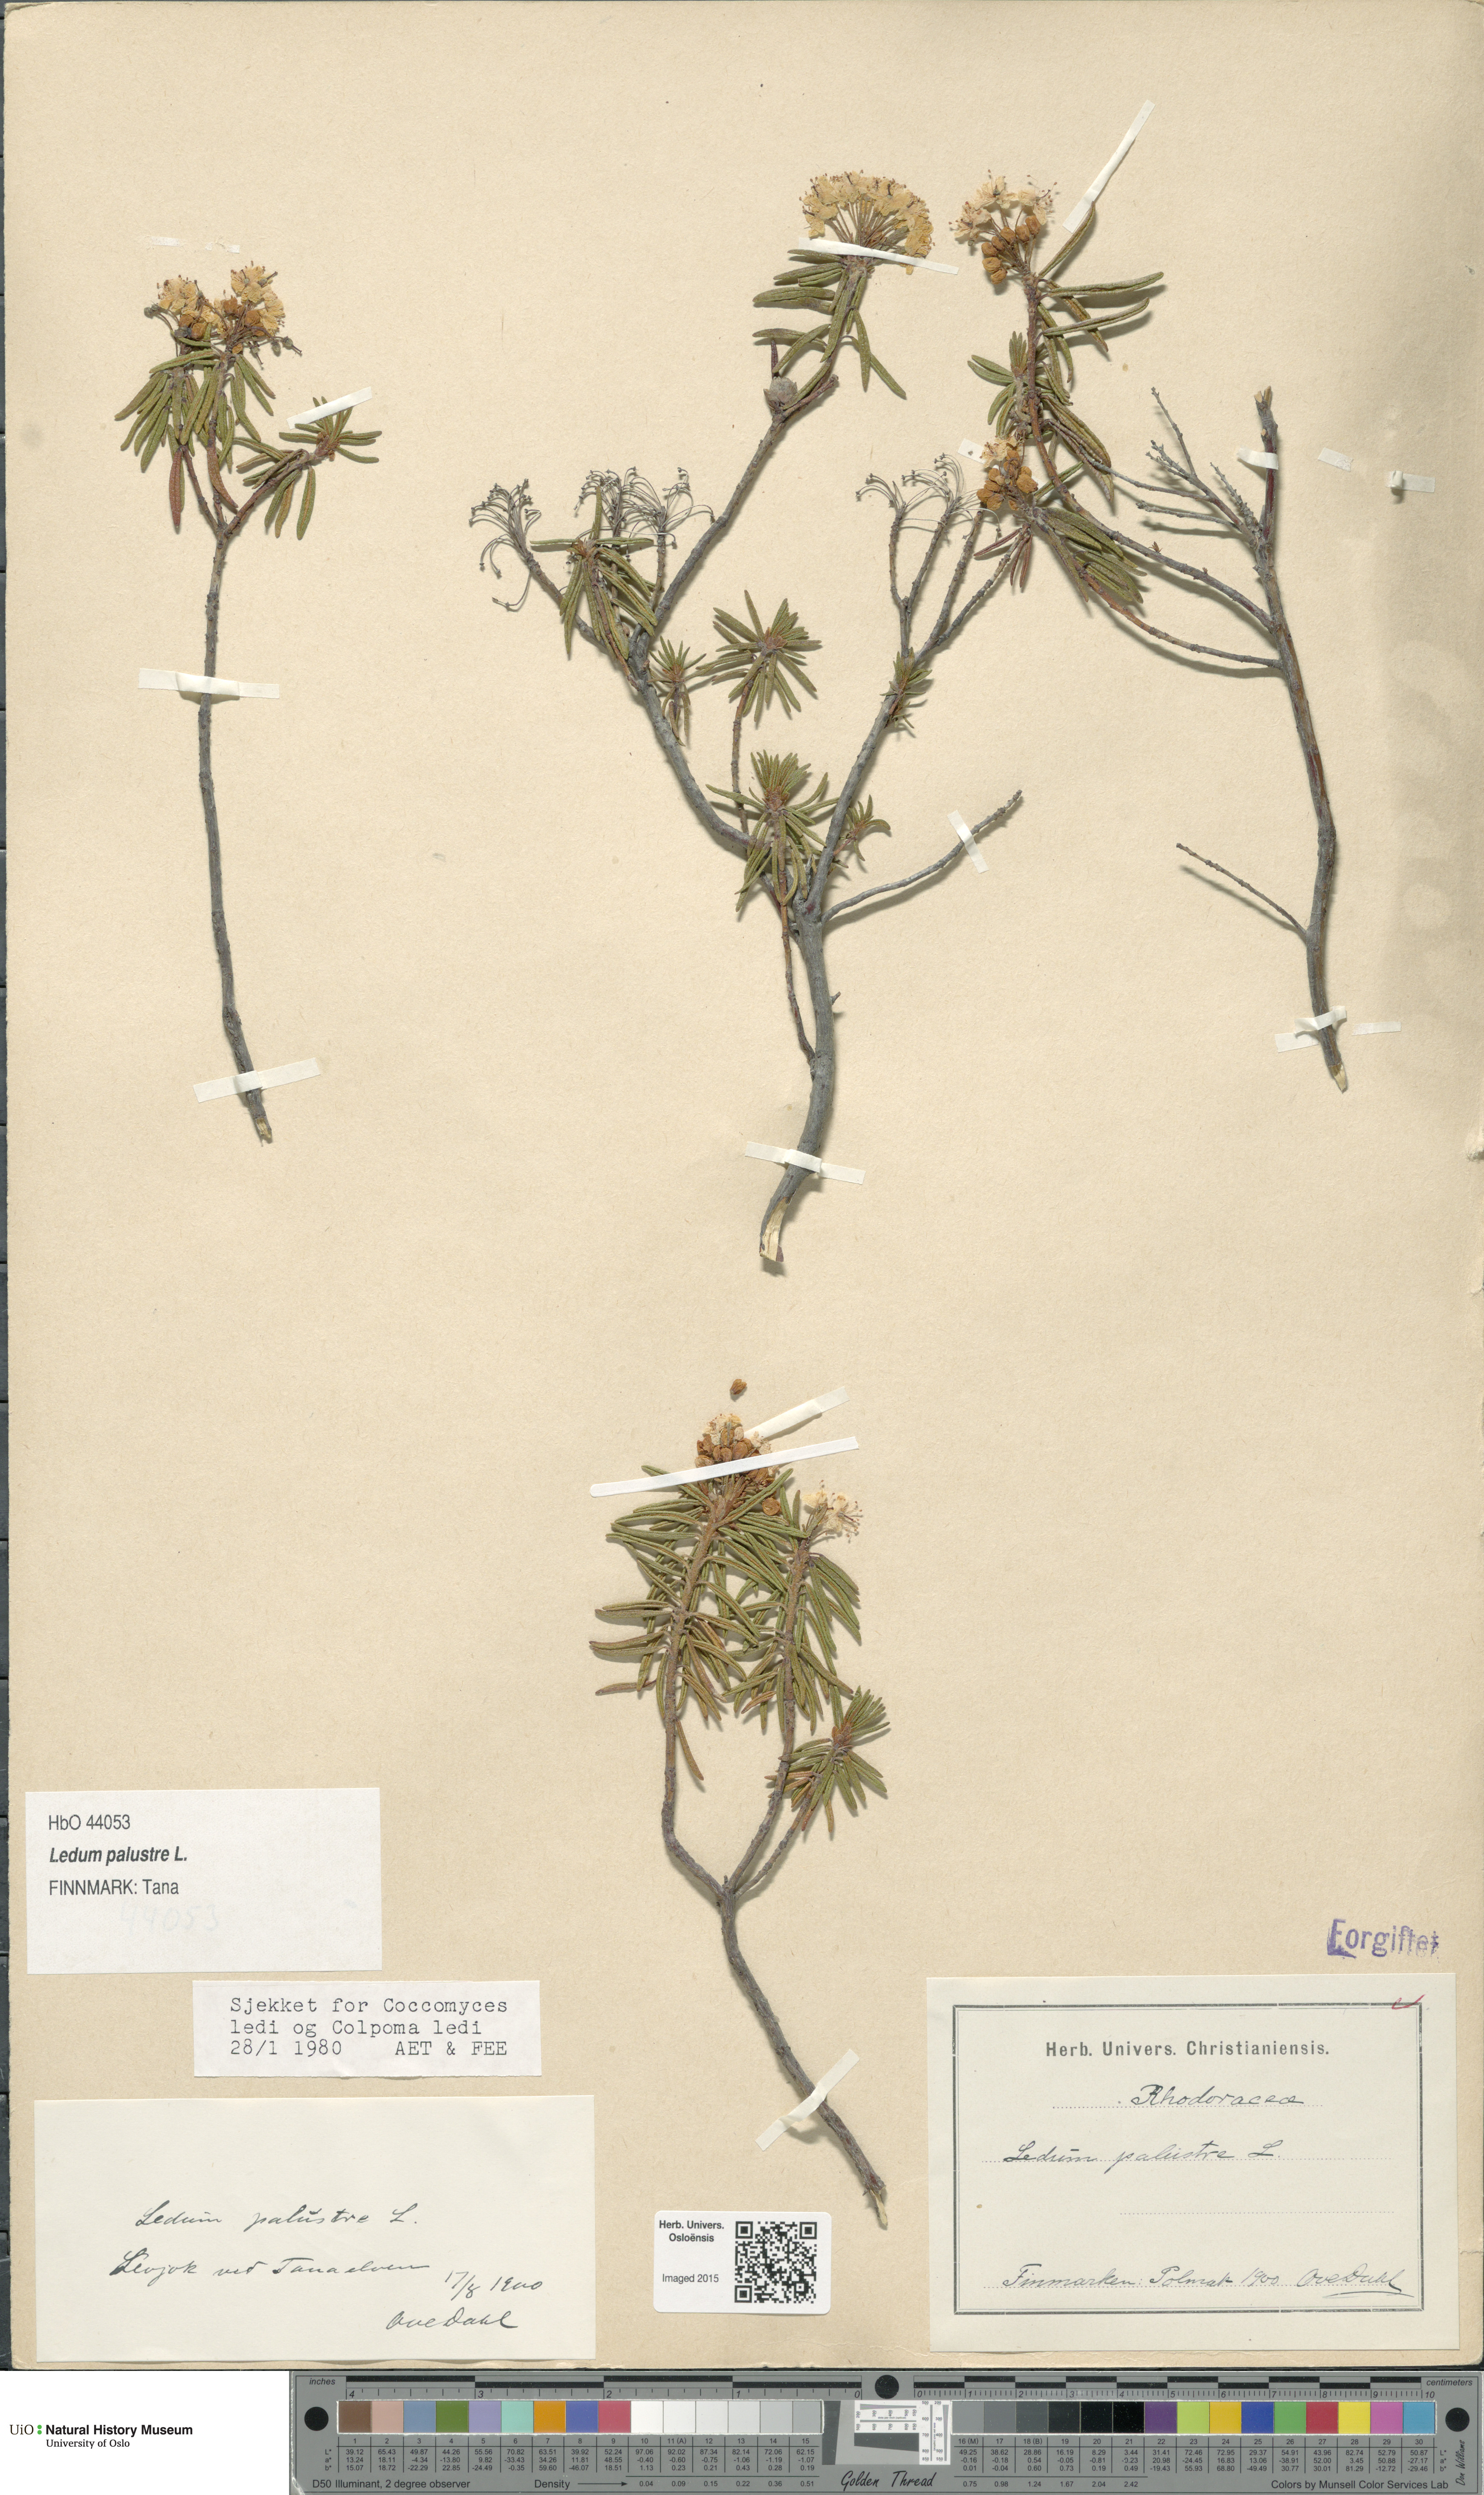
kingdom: Plantae
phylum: Tracheophyta
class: Magnoliopsida
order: Ericales
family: Ericaceae
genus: Rhododendron
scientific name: Rhododendron tomentosum
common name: Marsh labrador tea
